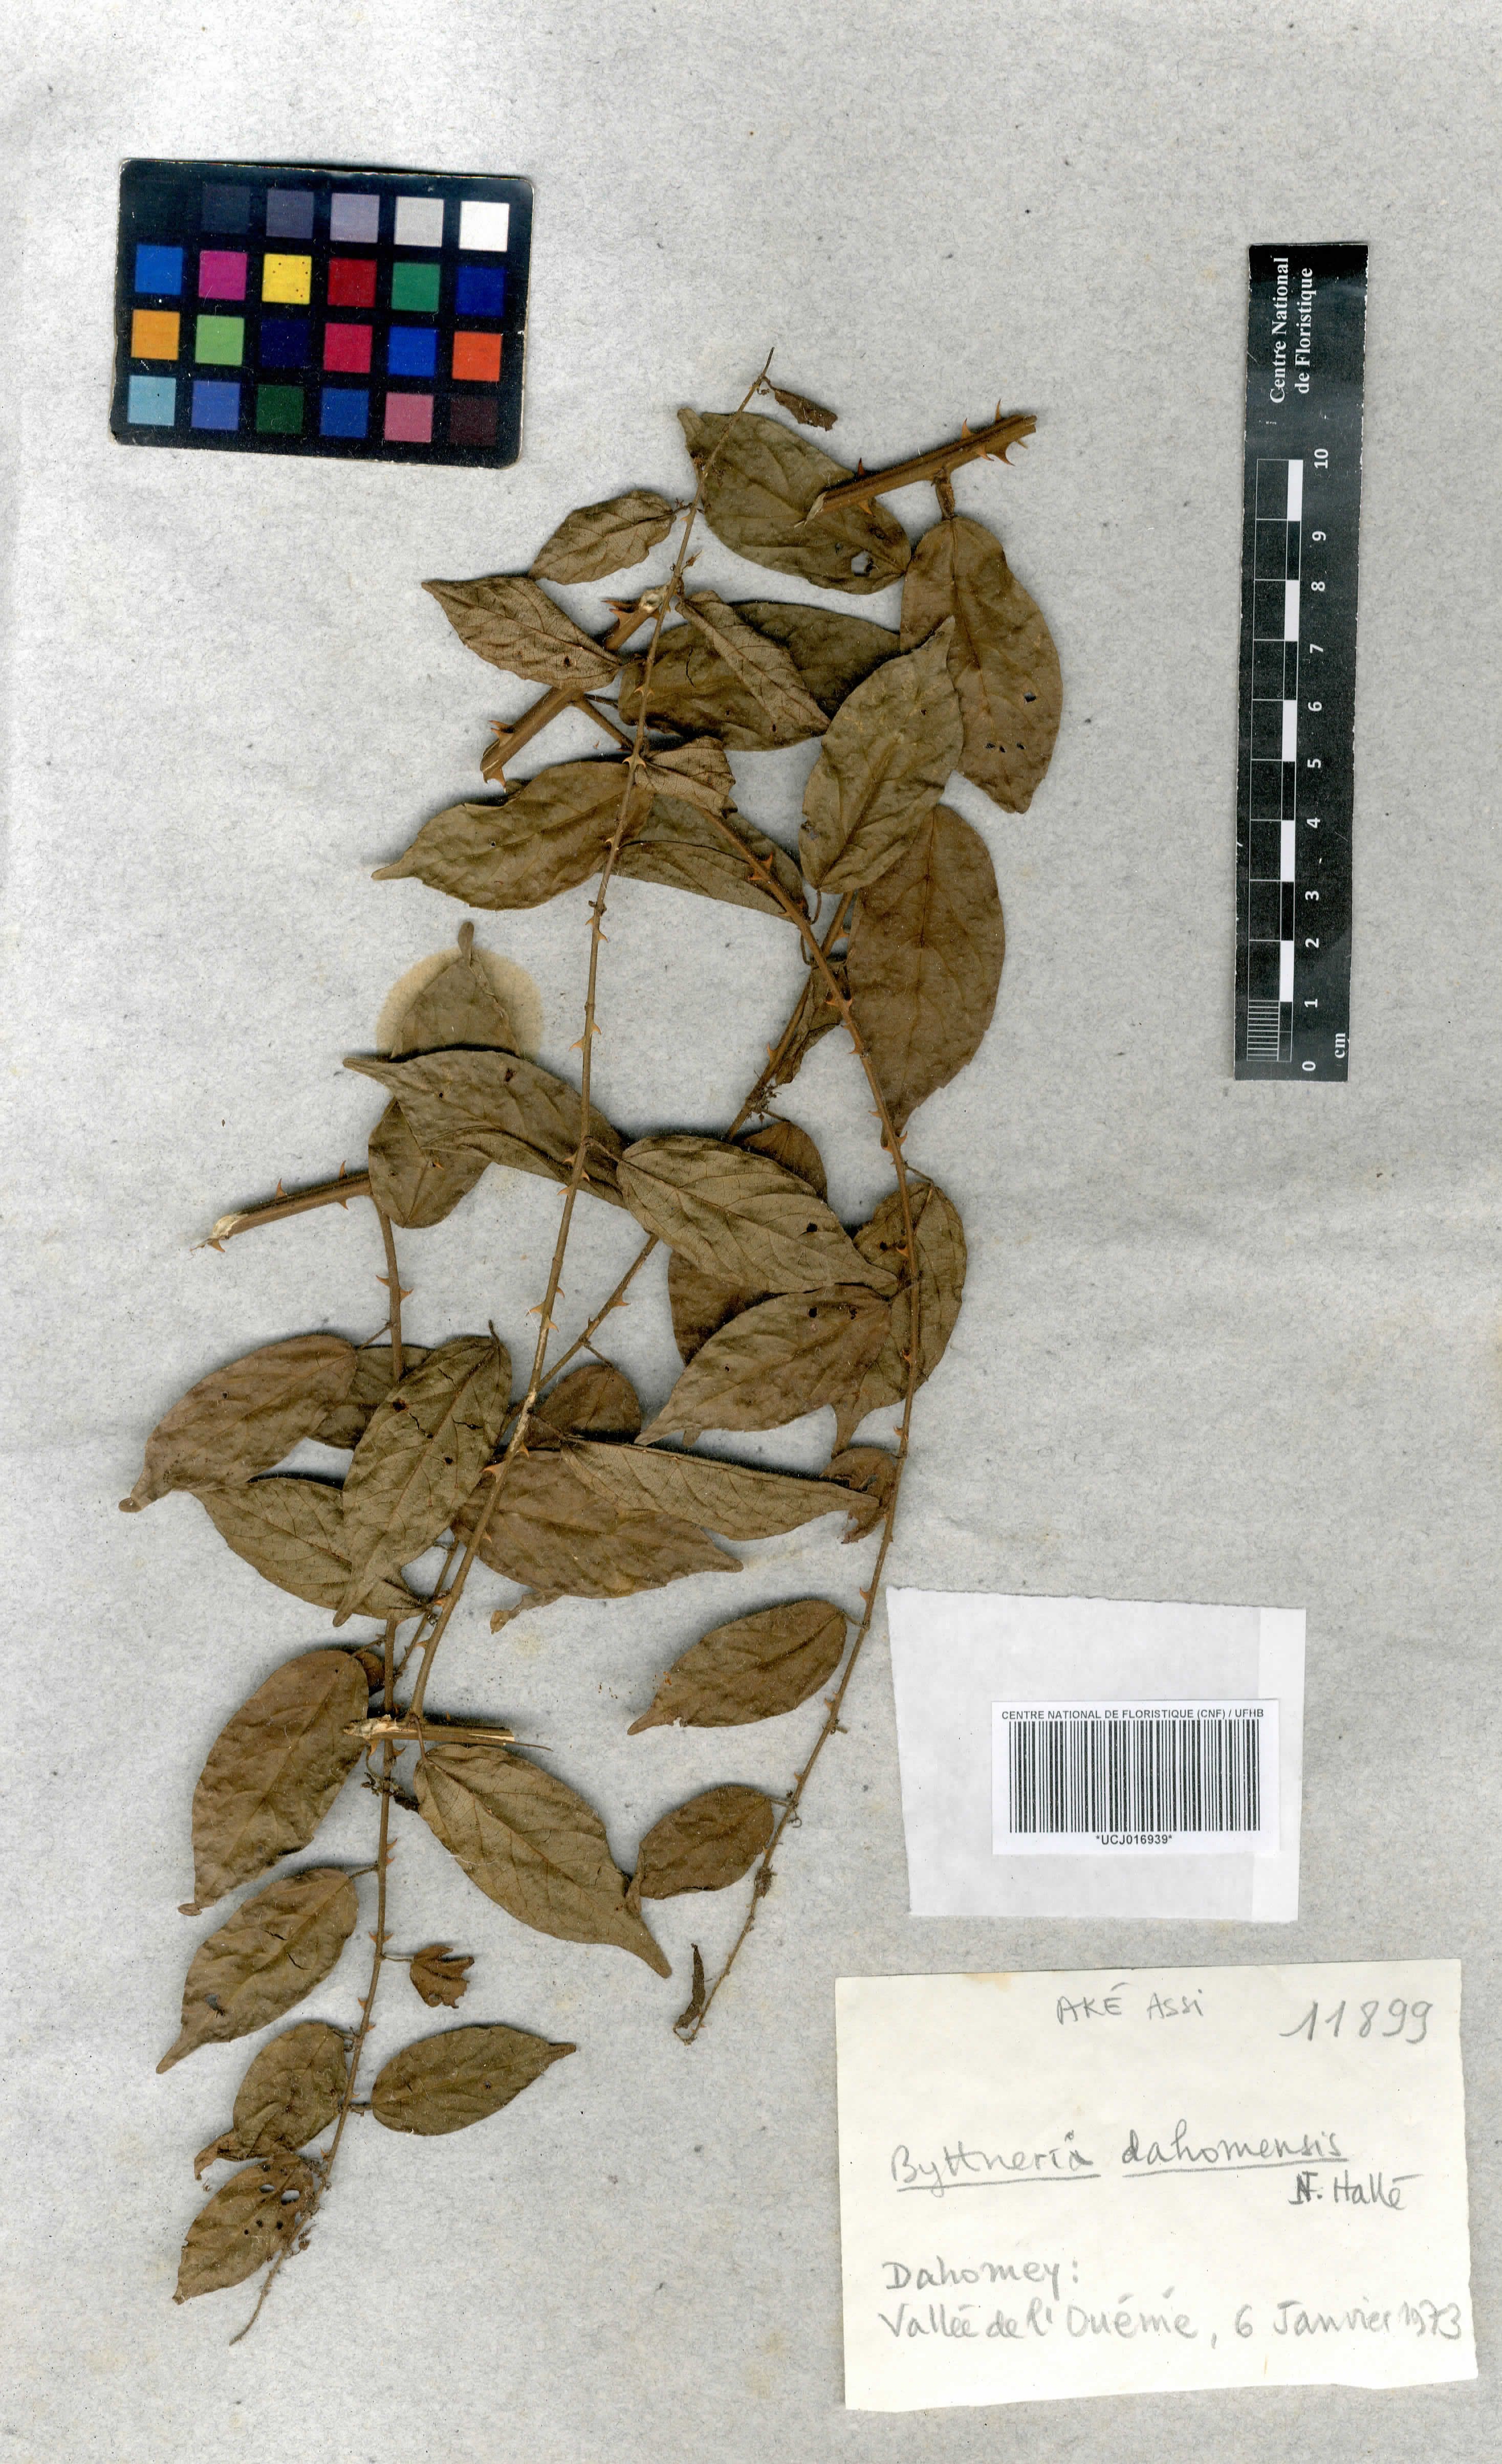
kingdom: Plantae
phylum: Tracheophyta
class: Magnoliopsida
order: Malvales
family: Malvaceae
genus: Byttneria
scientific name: Byttneria dahomensis
